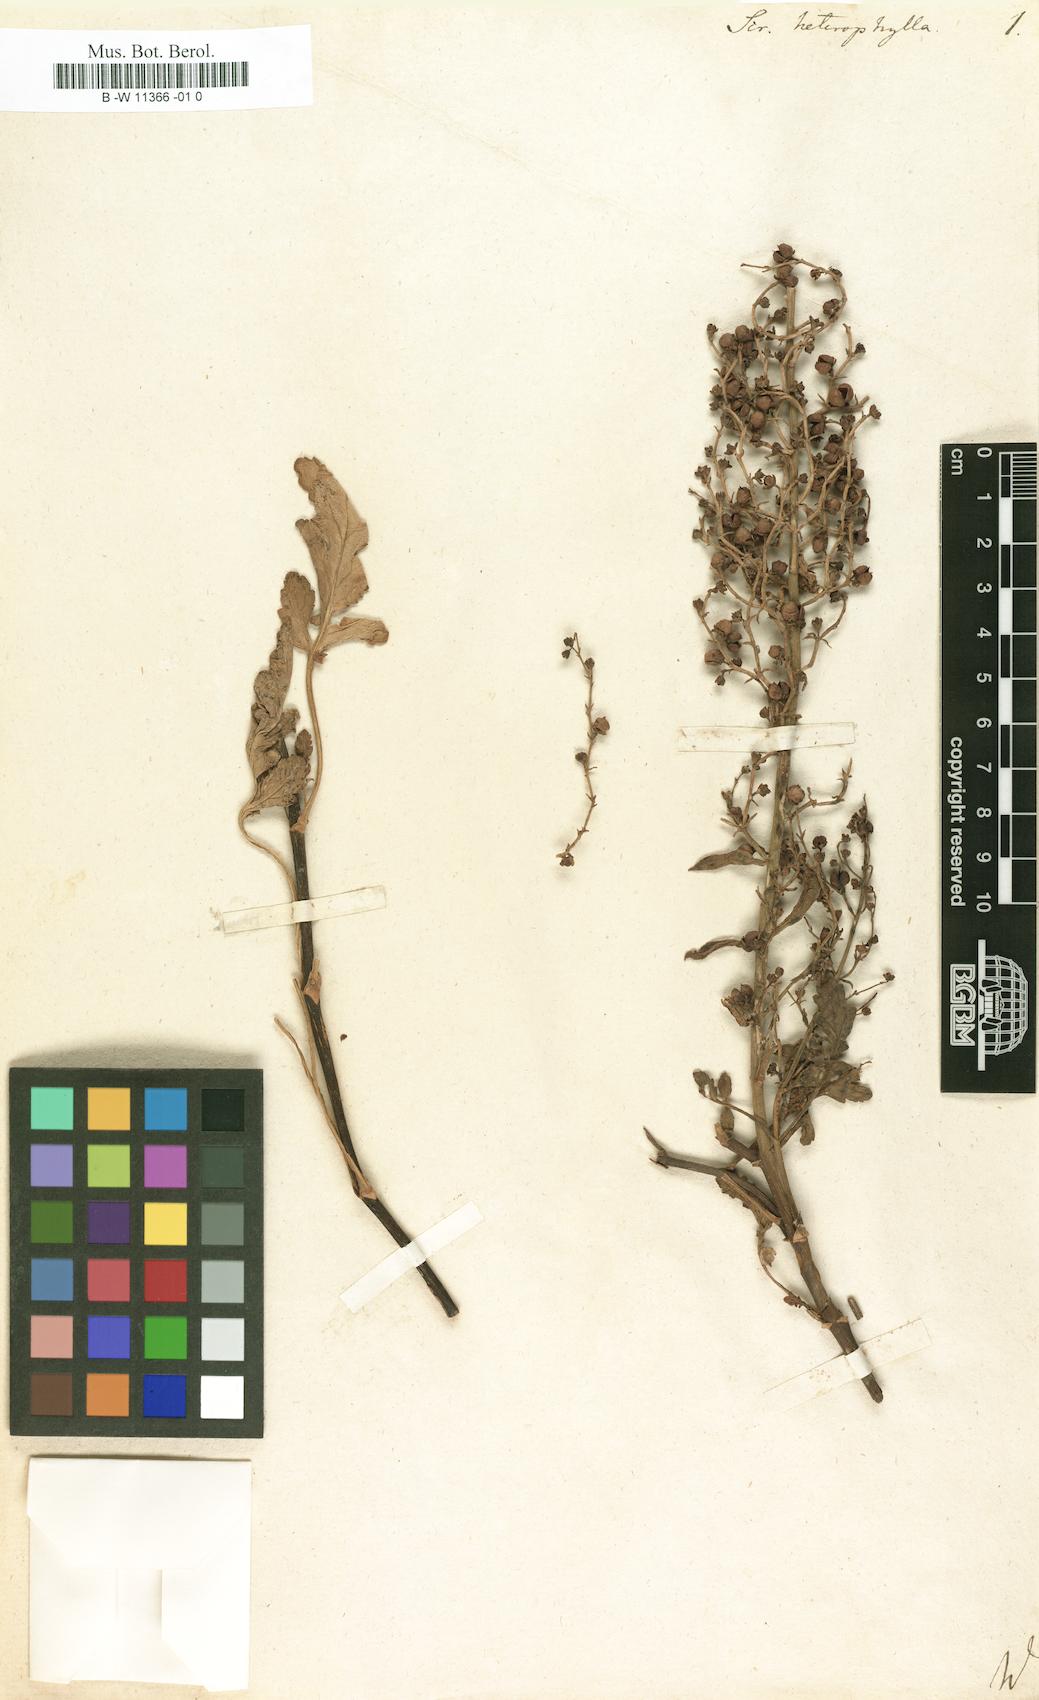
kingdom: Plantae
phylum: Tracheophyta
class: Magnoliopsida
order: Lamiales
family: Scrophulariaceae
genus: Scrophularia
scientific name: Scrophularia heterophylla
